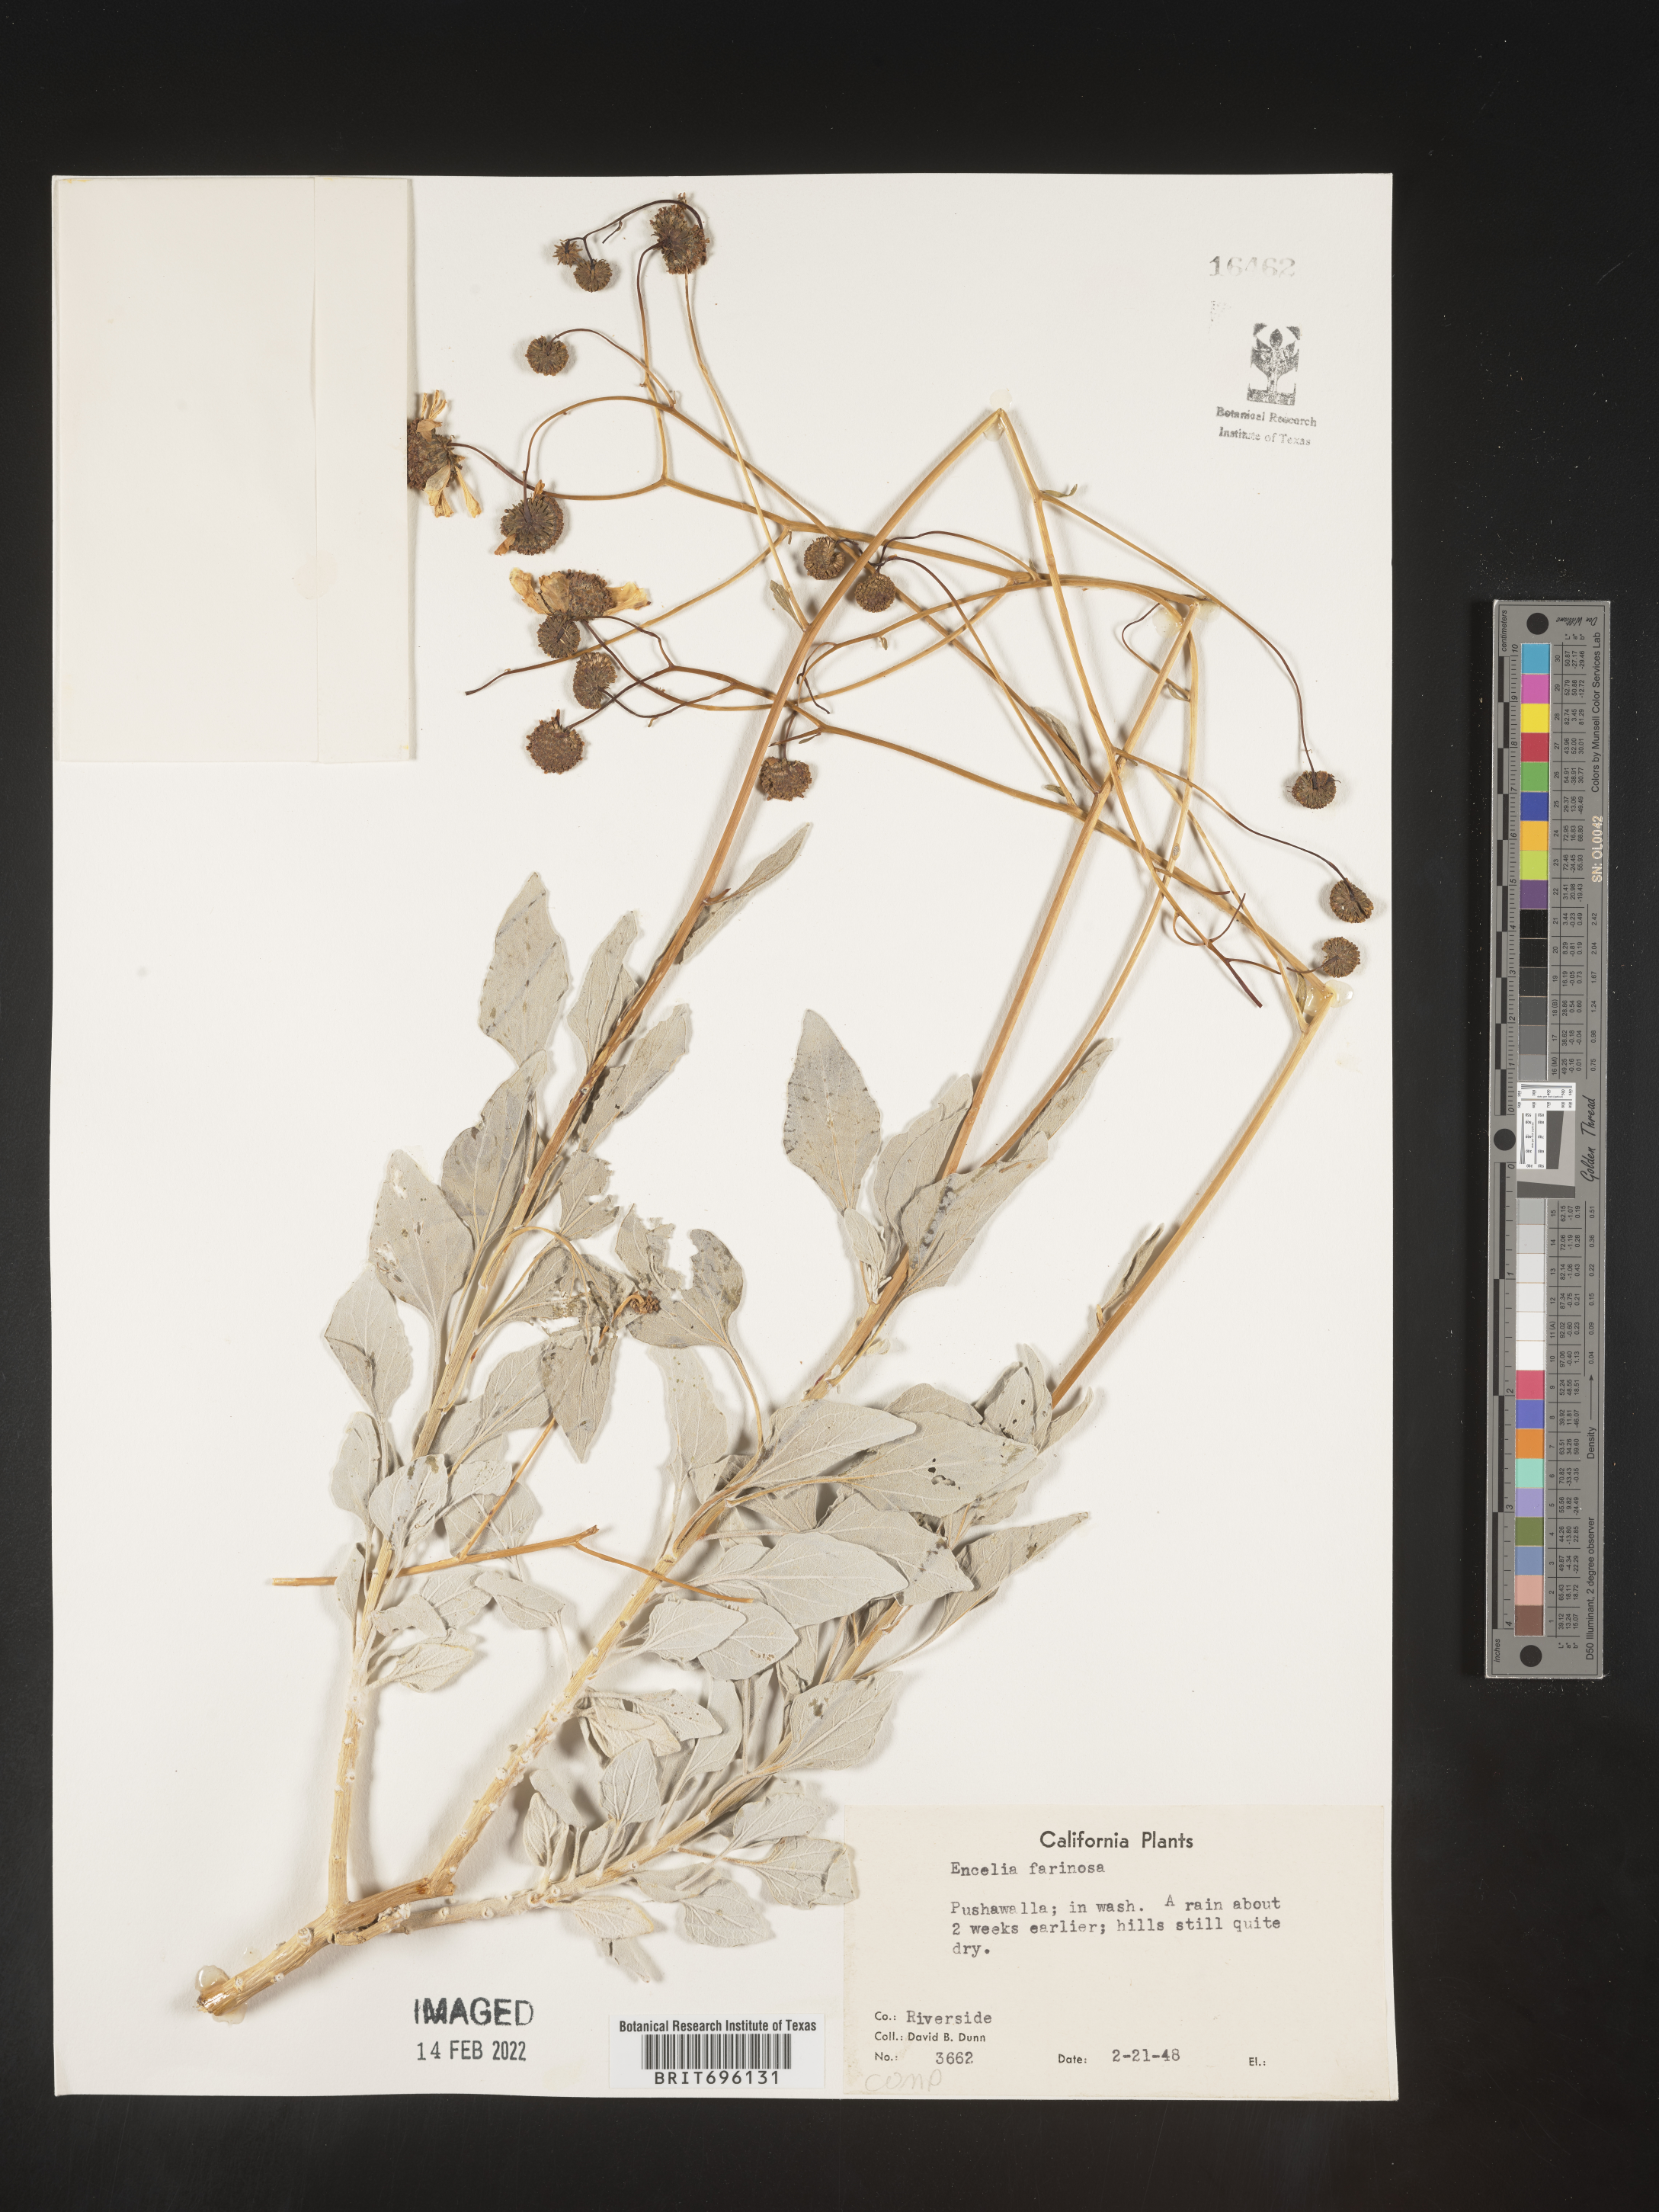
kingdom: Plantae
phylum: Tracheophyta
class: Magnoliopsida
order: Asterales
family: Asteraceae
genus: Encelia
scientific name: Encelia farinosa
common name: Brittlebush
